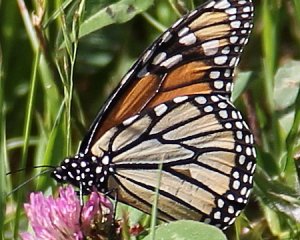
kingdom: Animalia
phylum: Arthropoda
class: Insecta
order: Lepidoptera
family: Nymphalidae
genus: Danaus
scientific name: Danaus plexippus
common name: Monarch
